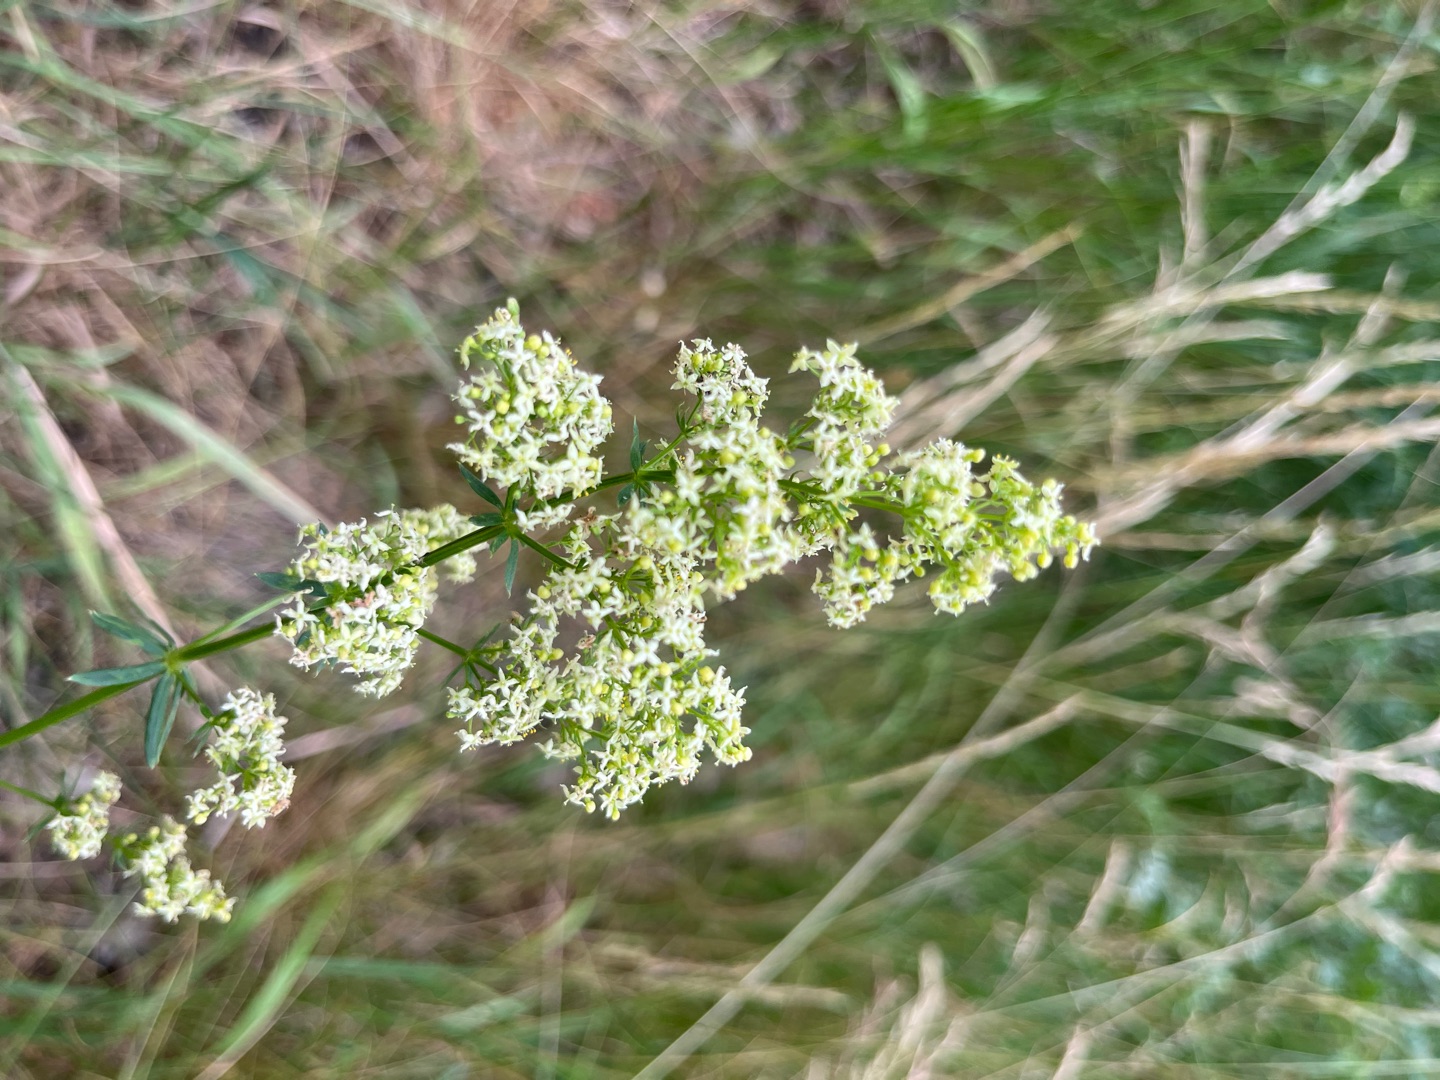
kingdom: Plantae
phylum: Tracheophyta
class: Magnoliopsida
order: Gentianales
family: Rubiaceae
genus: Galium
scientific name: Galium mollugo
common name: Hvid snerre
